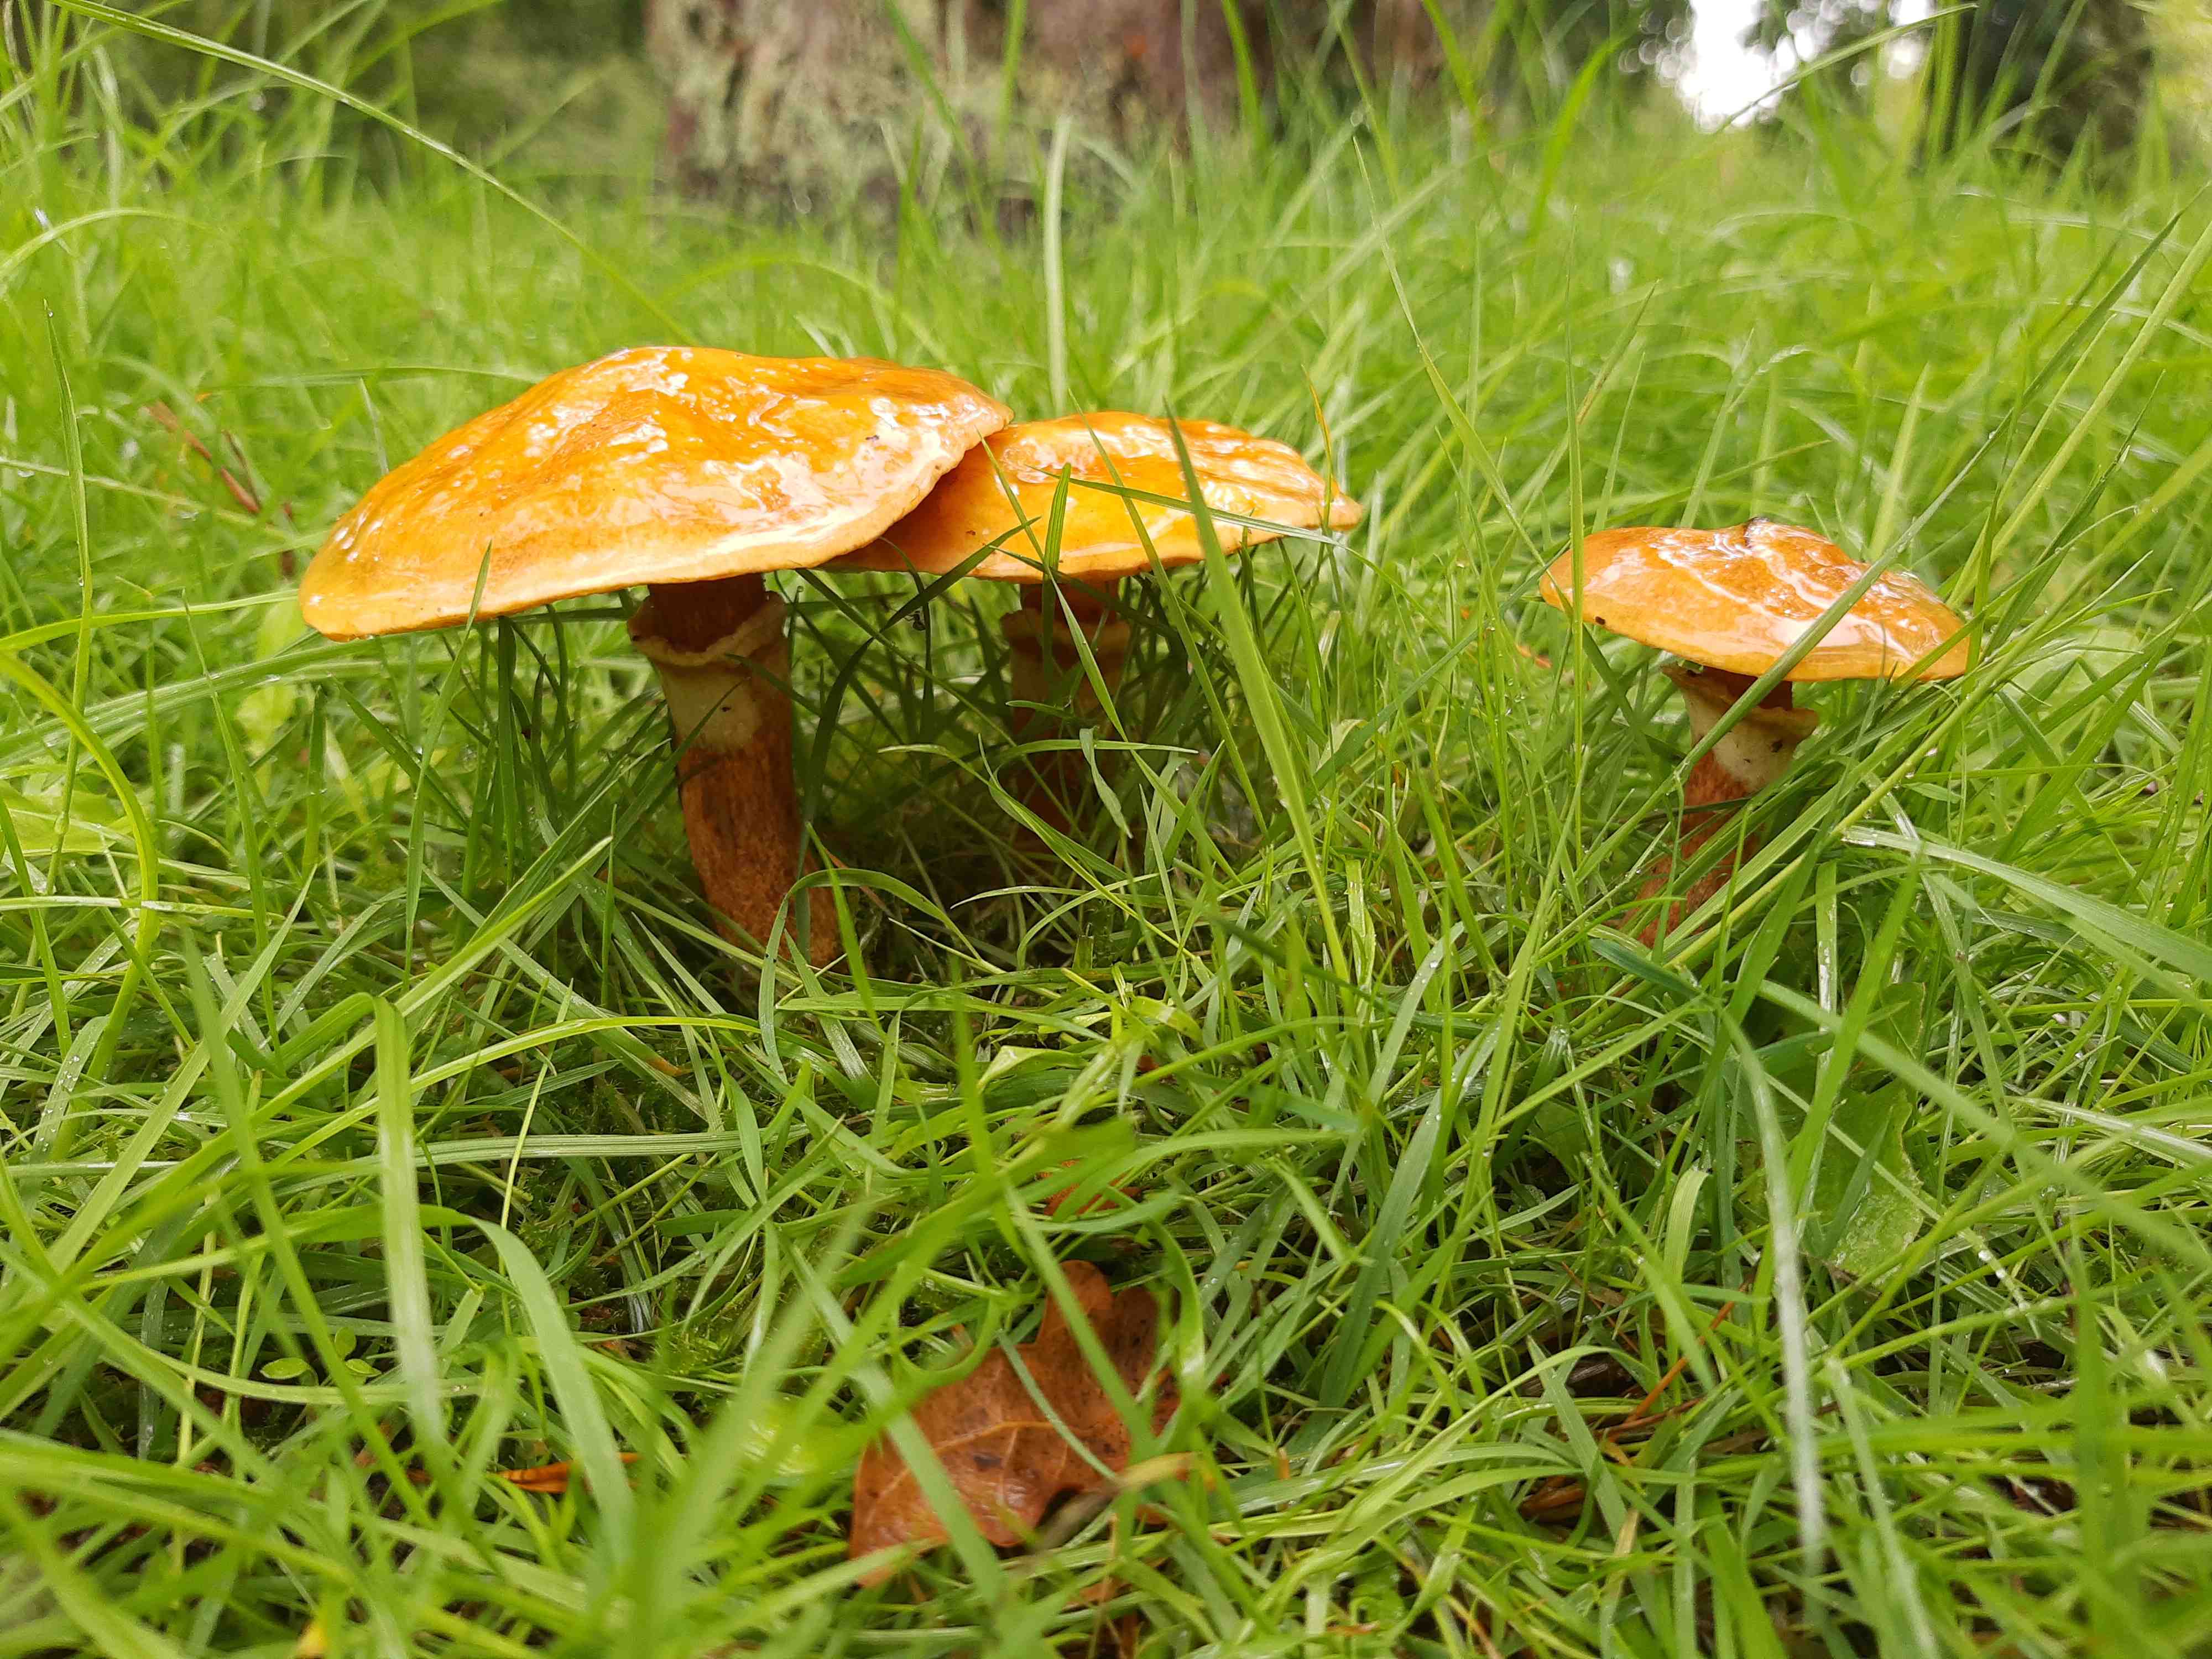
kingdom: Fungi
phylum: Basidiomycota
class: Agaricomycetes
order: Boletales
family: Suillaceae
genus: Suillus
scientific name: Suillus grevillei
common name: lærke-slimrørhat
